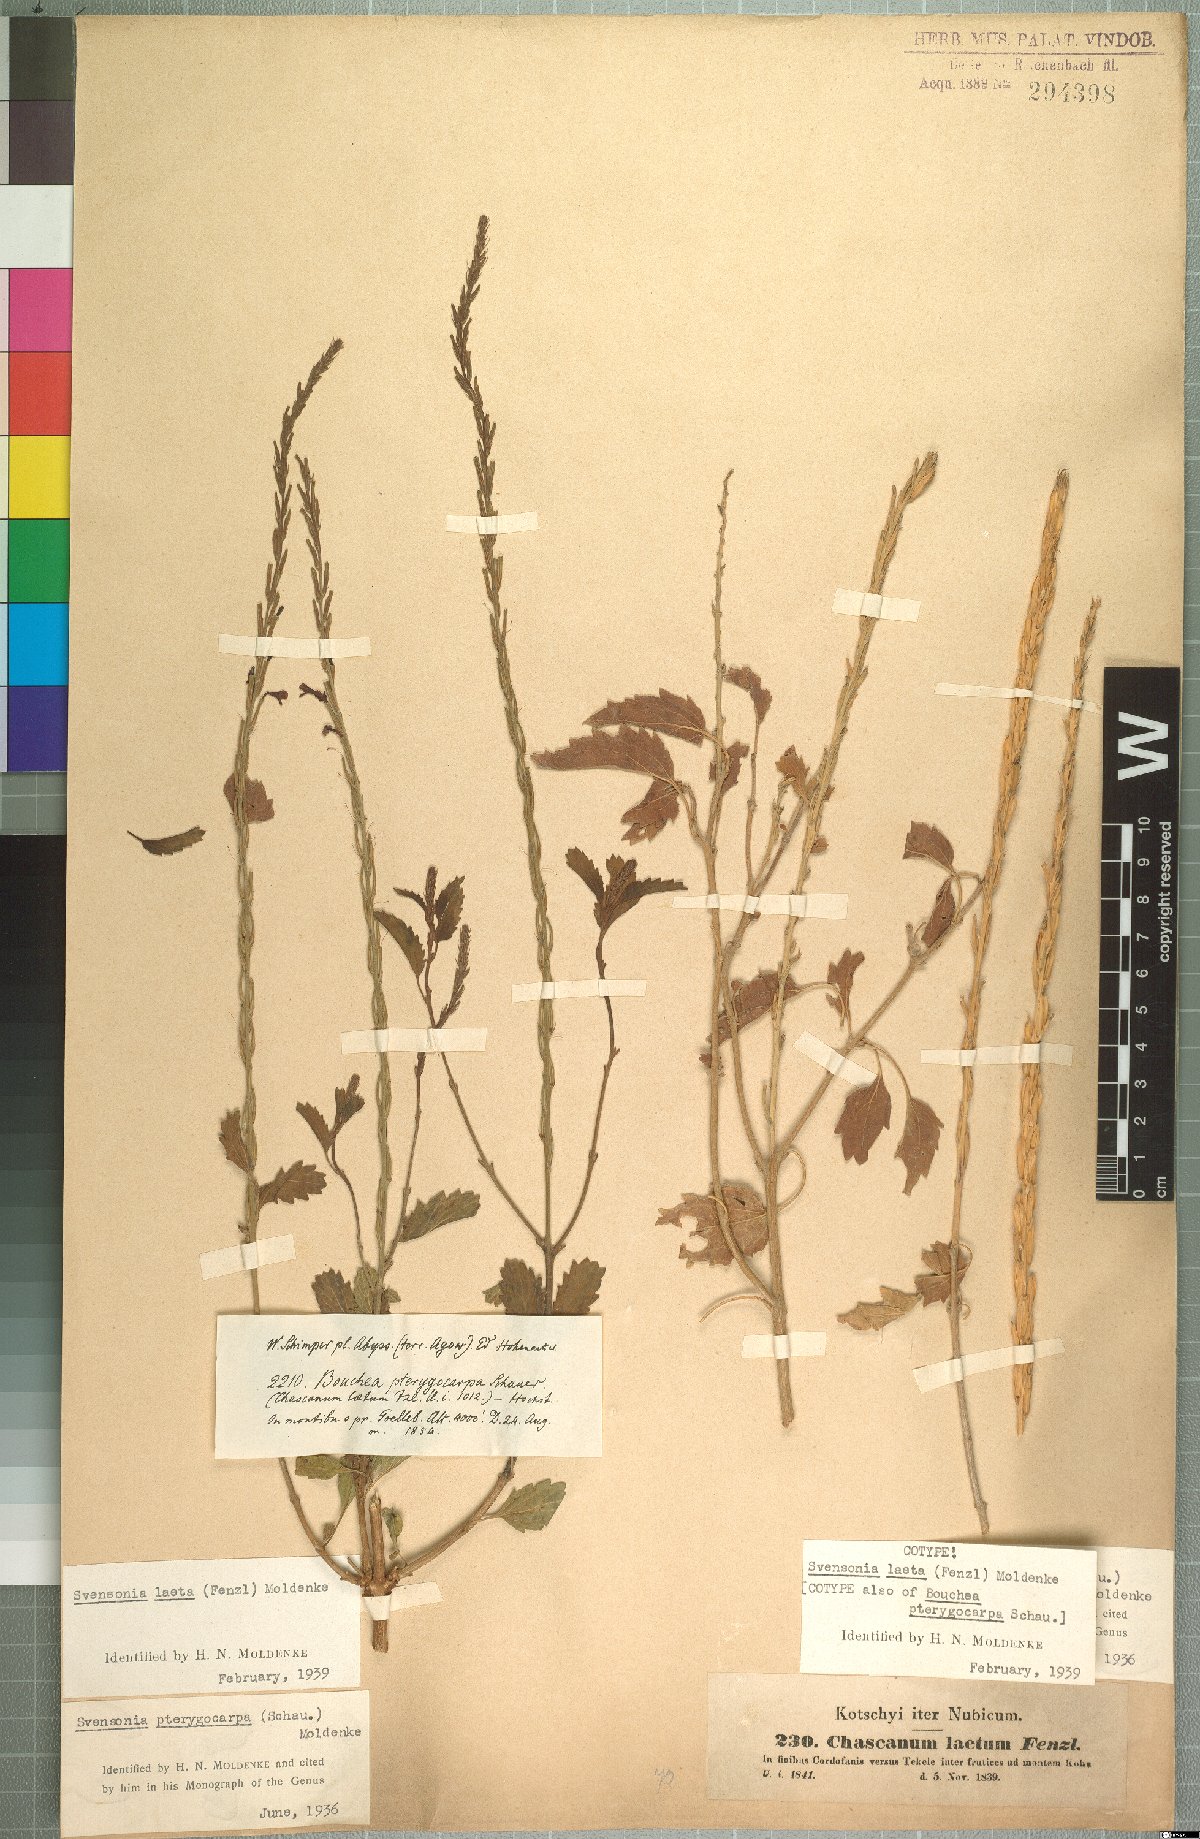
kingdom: Plantae
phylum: Tracheophyta
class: Magnoliopsida
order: Lamiales
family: Verbenaceae
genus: Chascanum
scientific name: Chascanum laetum
